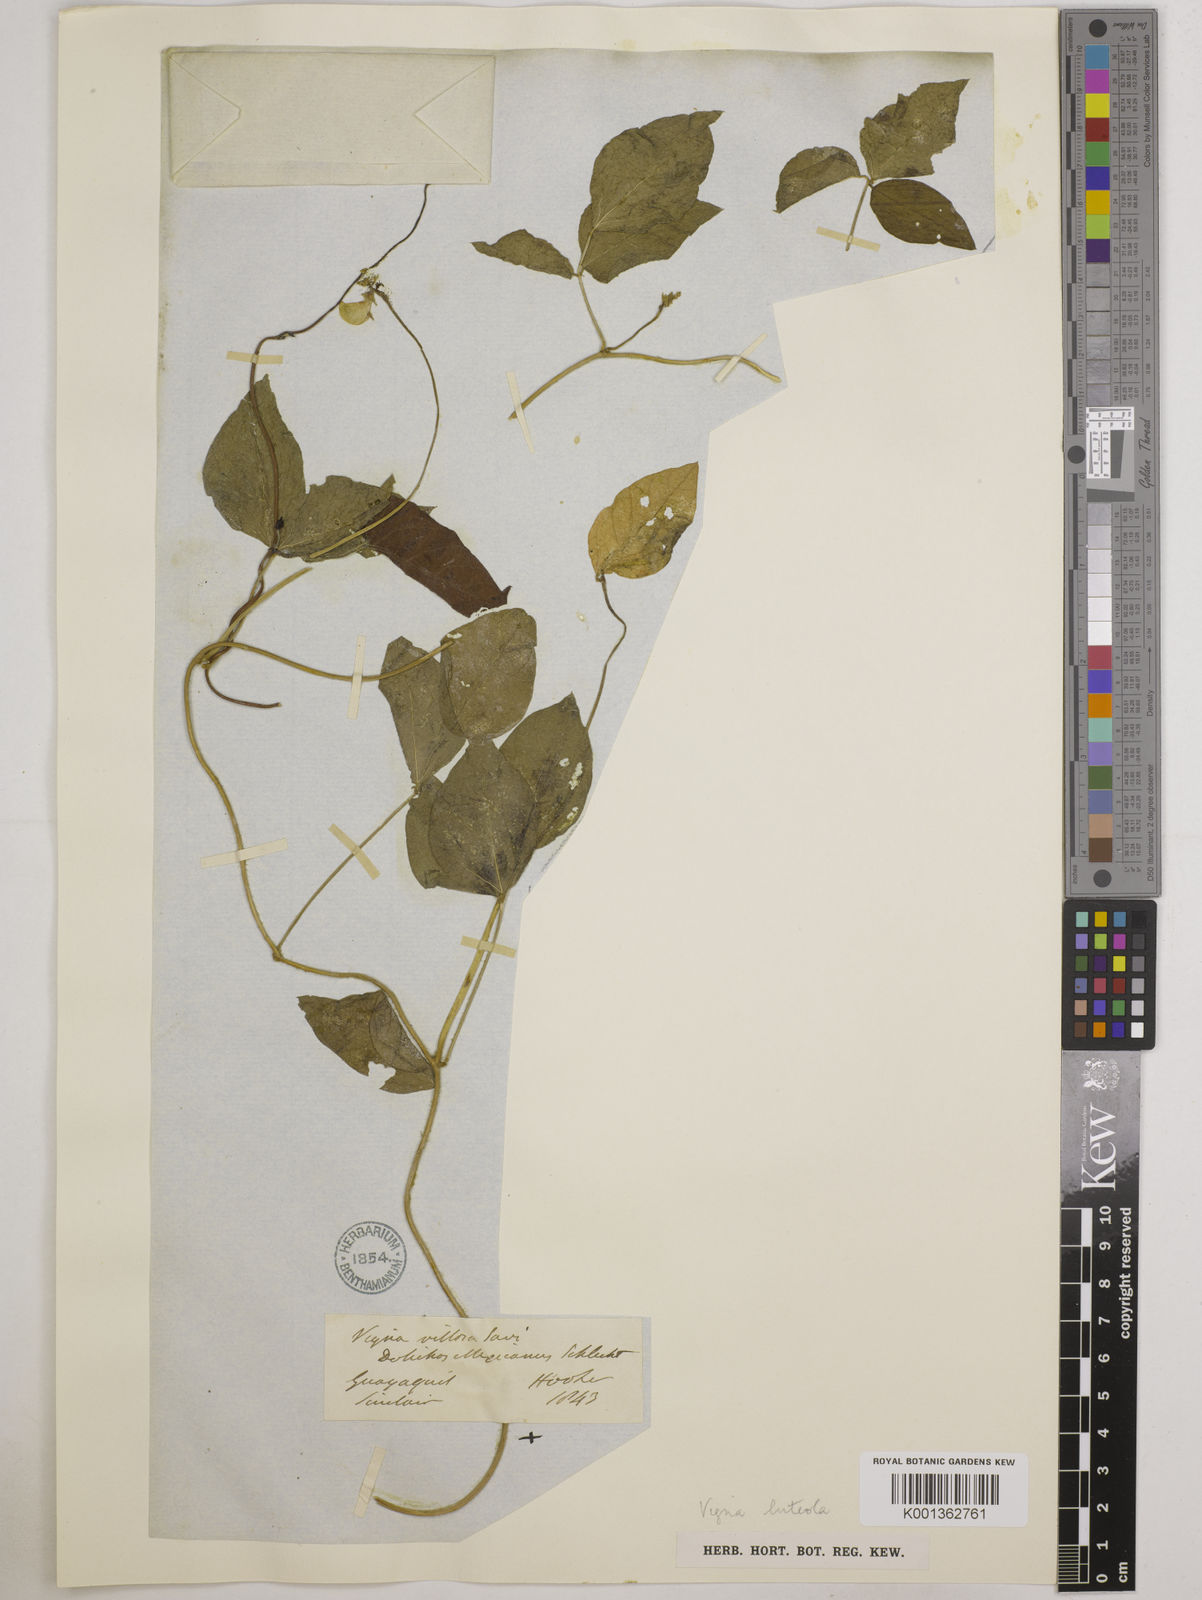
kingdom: Plantae
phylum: Tracheophyta
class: Magnoliopsida
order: Fabales
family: Fabaceae
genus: Vigna
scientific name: Vigna luteola
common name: Hairypod cowpea
